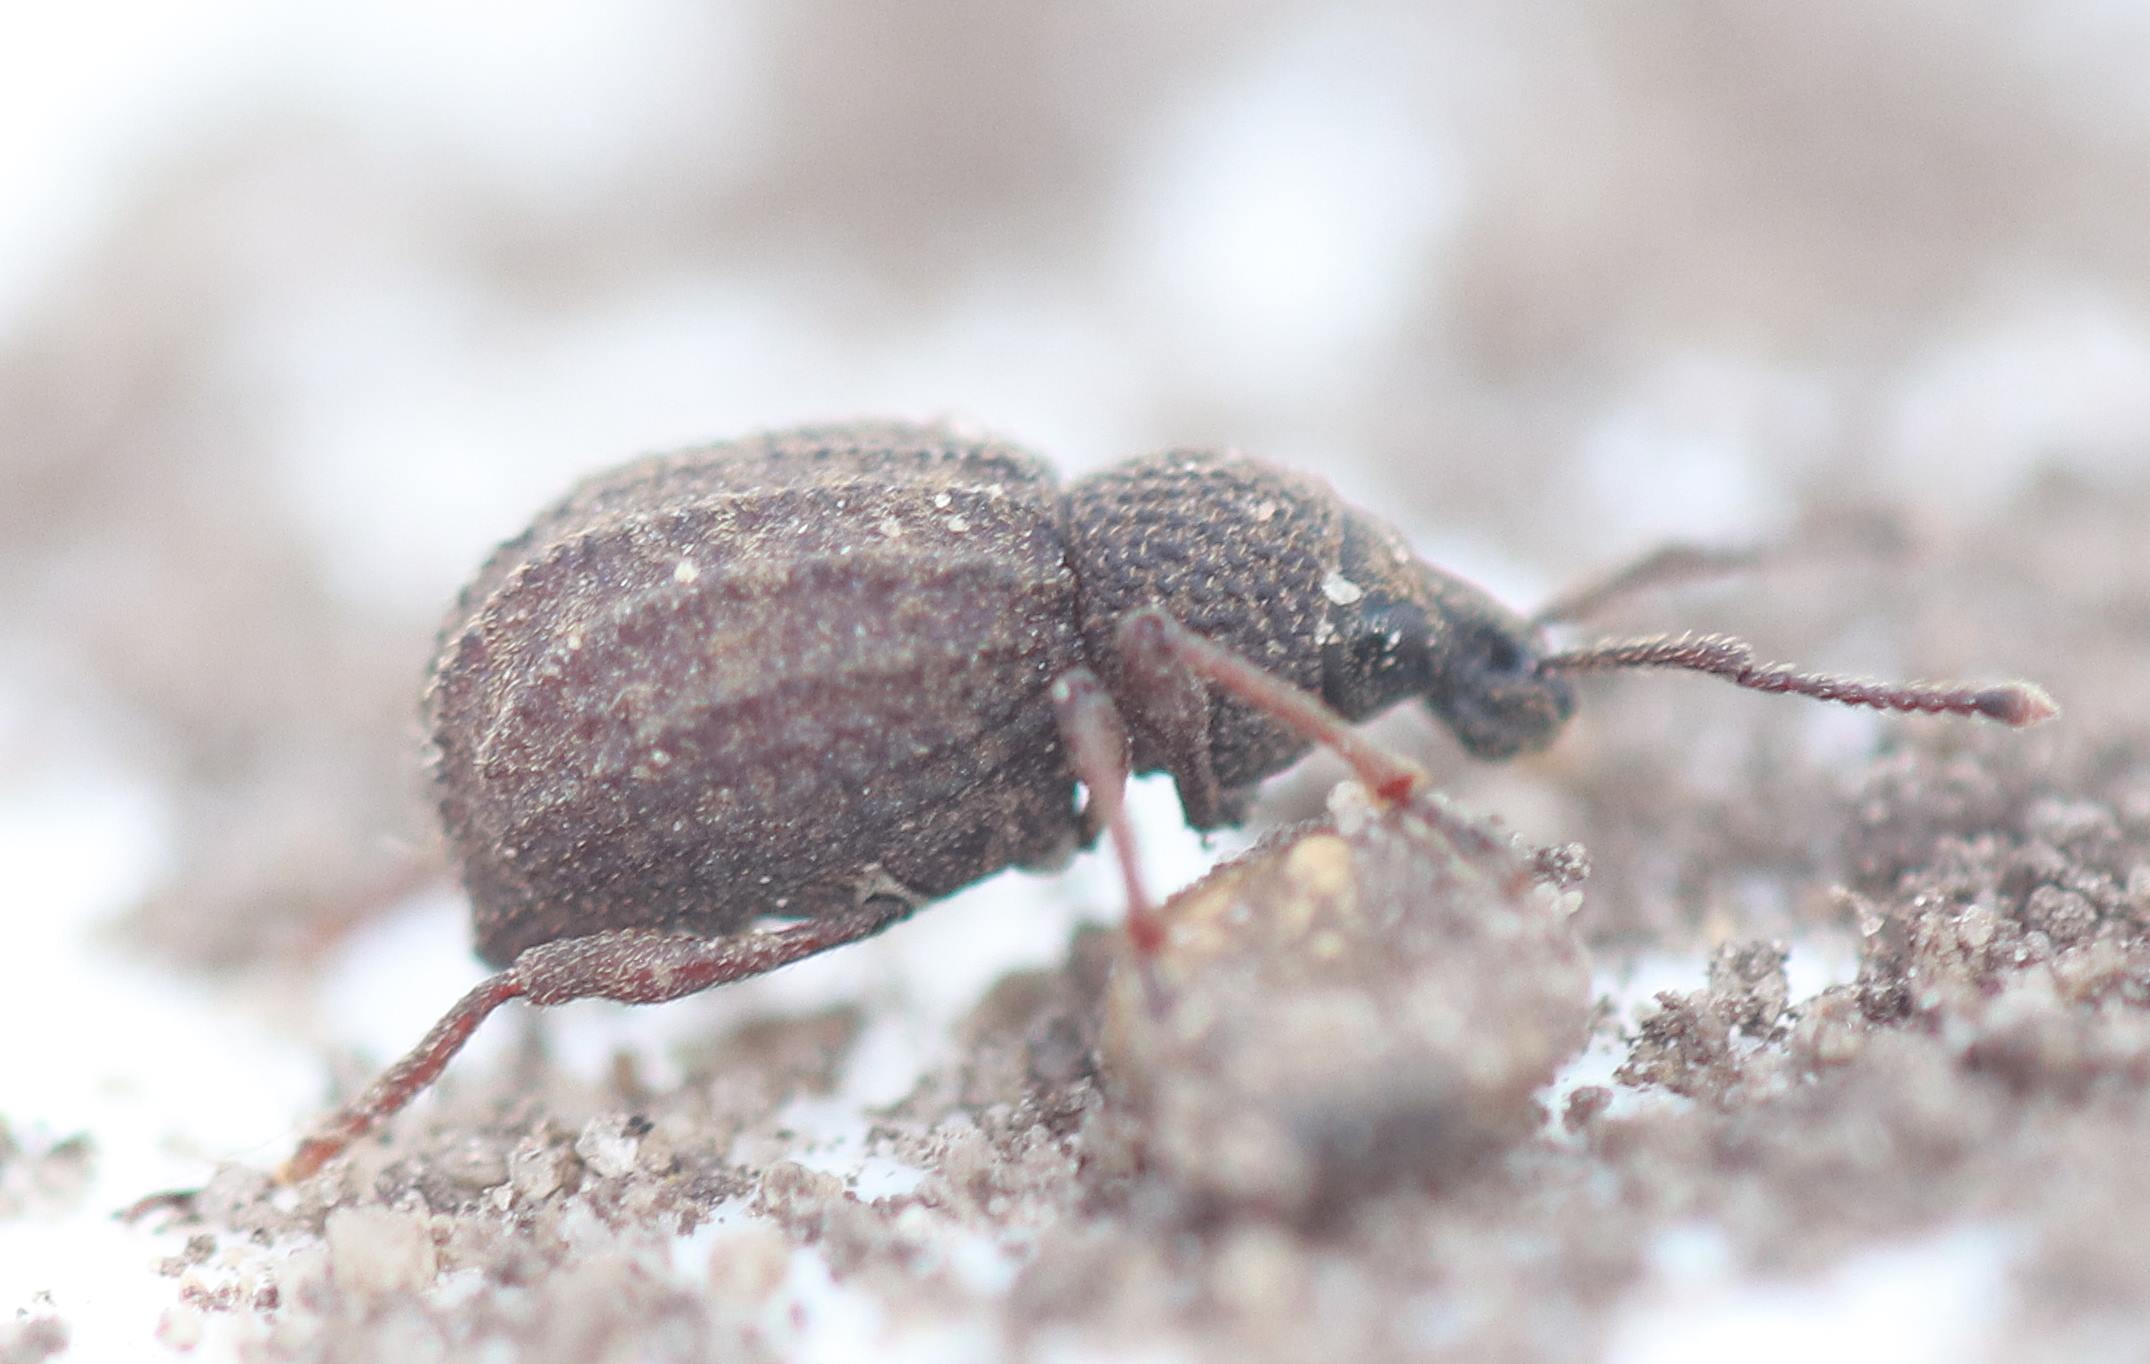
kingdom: Animalia
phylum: Arthropoda
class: Insecta
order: Coleoptera
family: Curculionidae
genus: Otiorhynchus
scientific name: Otiorhynchus porcatus
